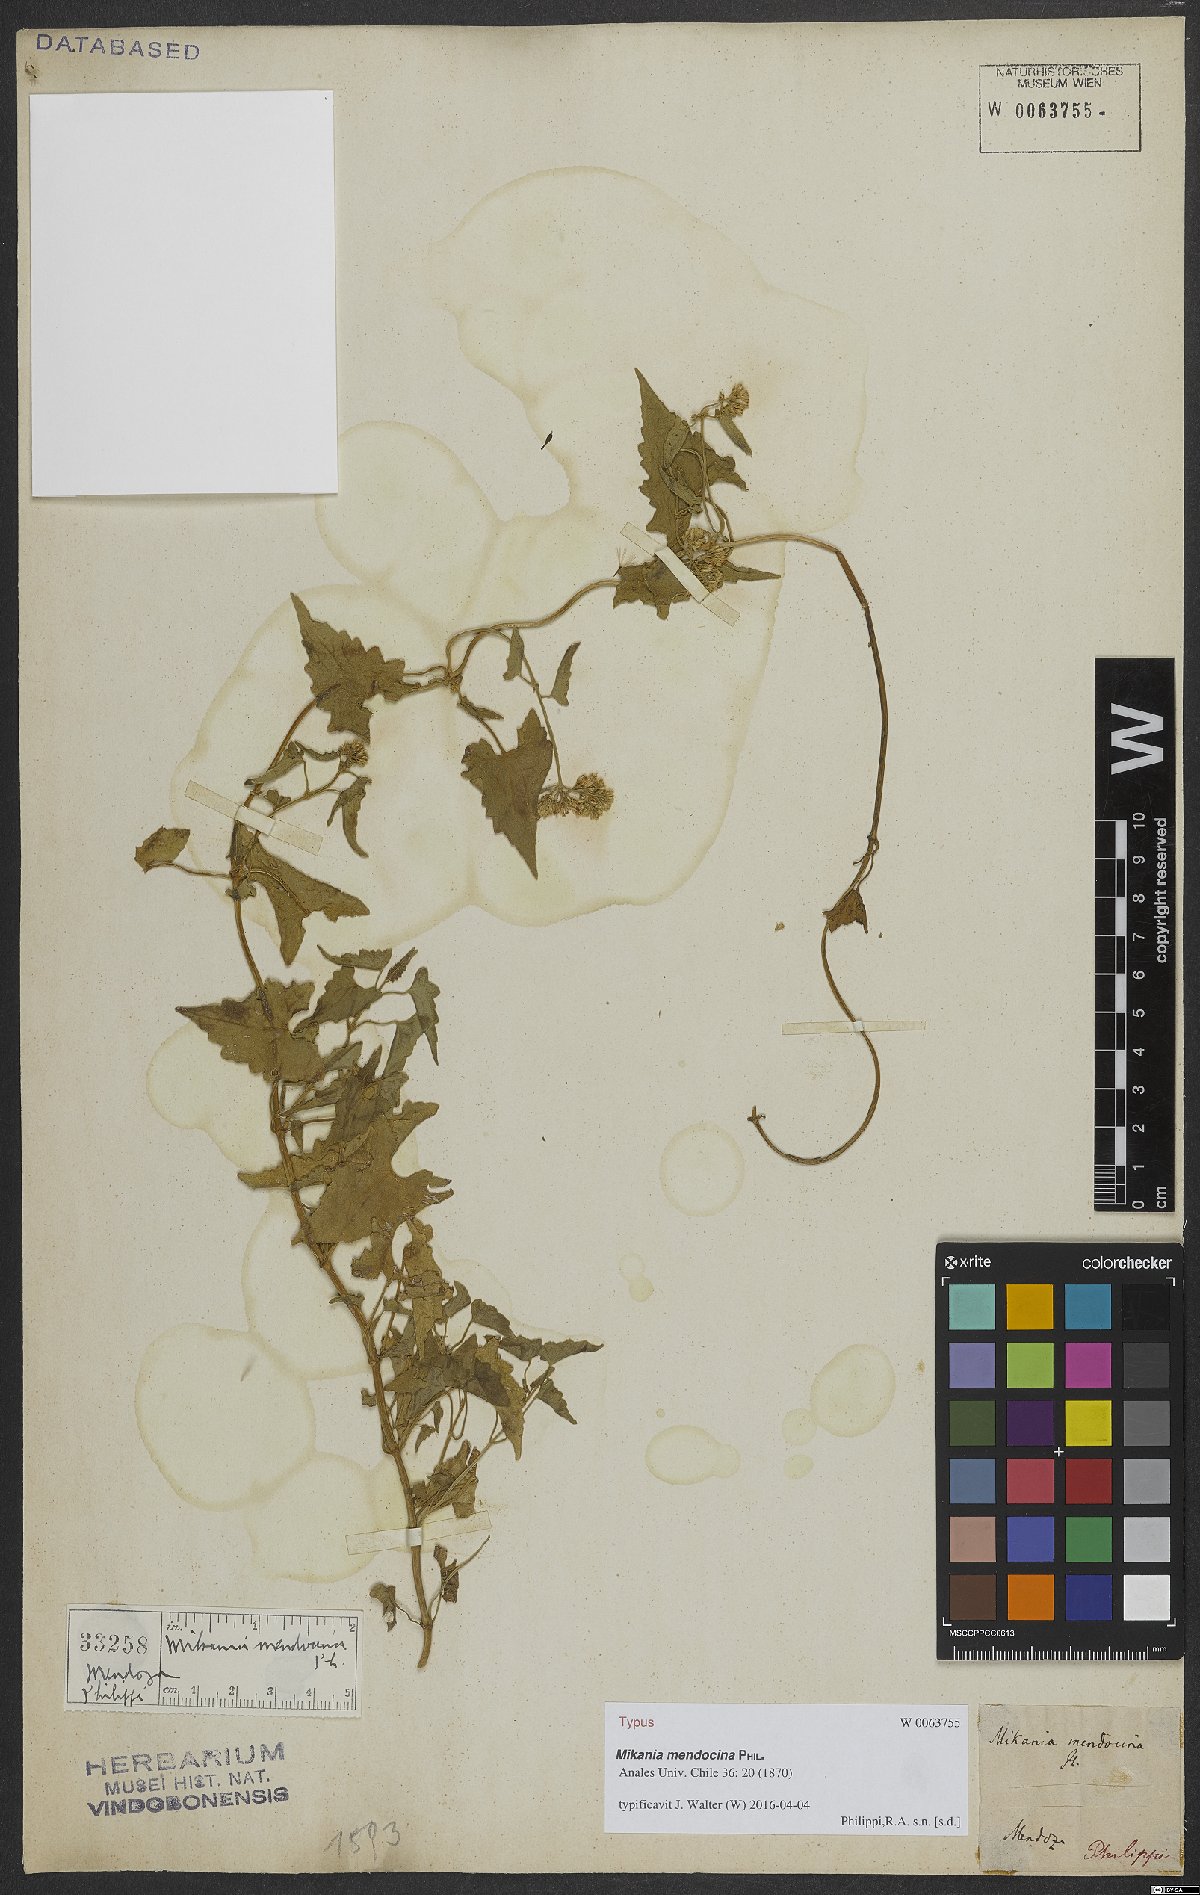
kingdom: Plantae
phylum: Tracheophyta
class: Magnoliopsida
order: Asterales
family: Asteraceae
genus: Mikania
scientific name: Mikania mendocina
